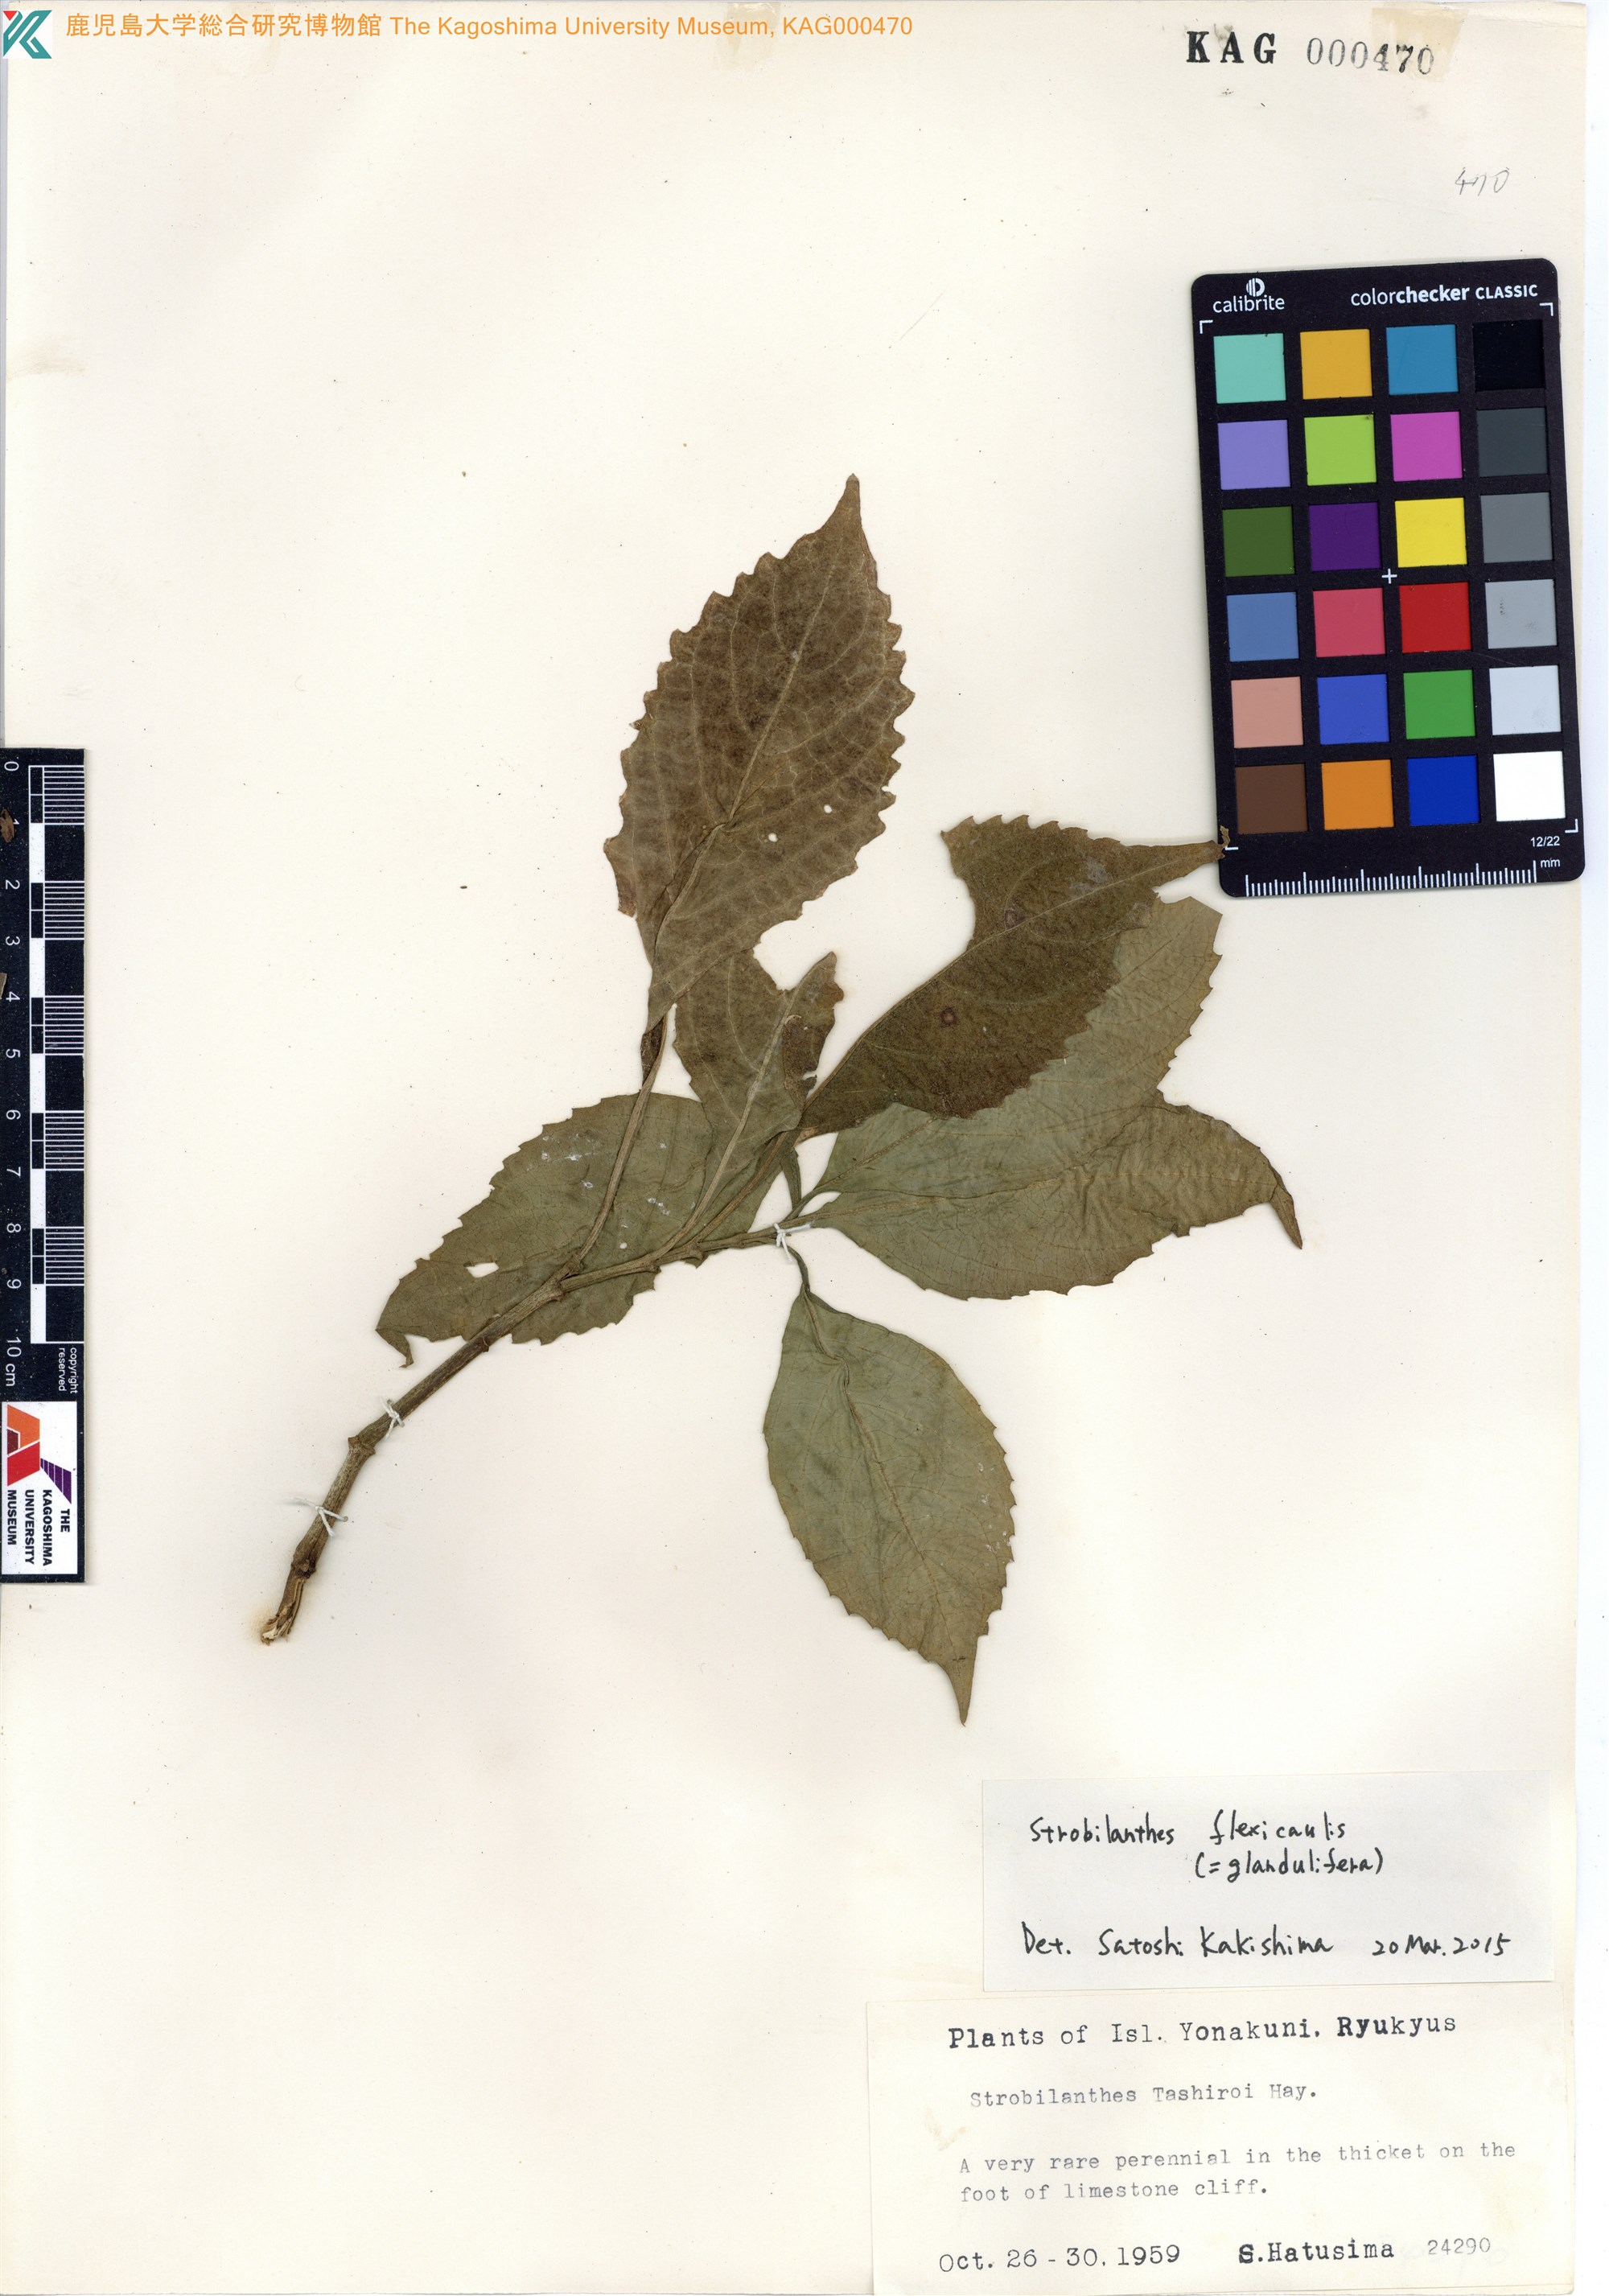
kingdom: Plantae
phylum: Tracheophyta
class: Magnoliopsida
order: Lamiales
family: Acanthaceae
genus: Strobilanthes
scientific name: Strobilanthes flexicaulis
